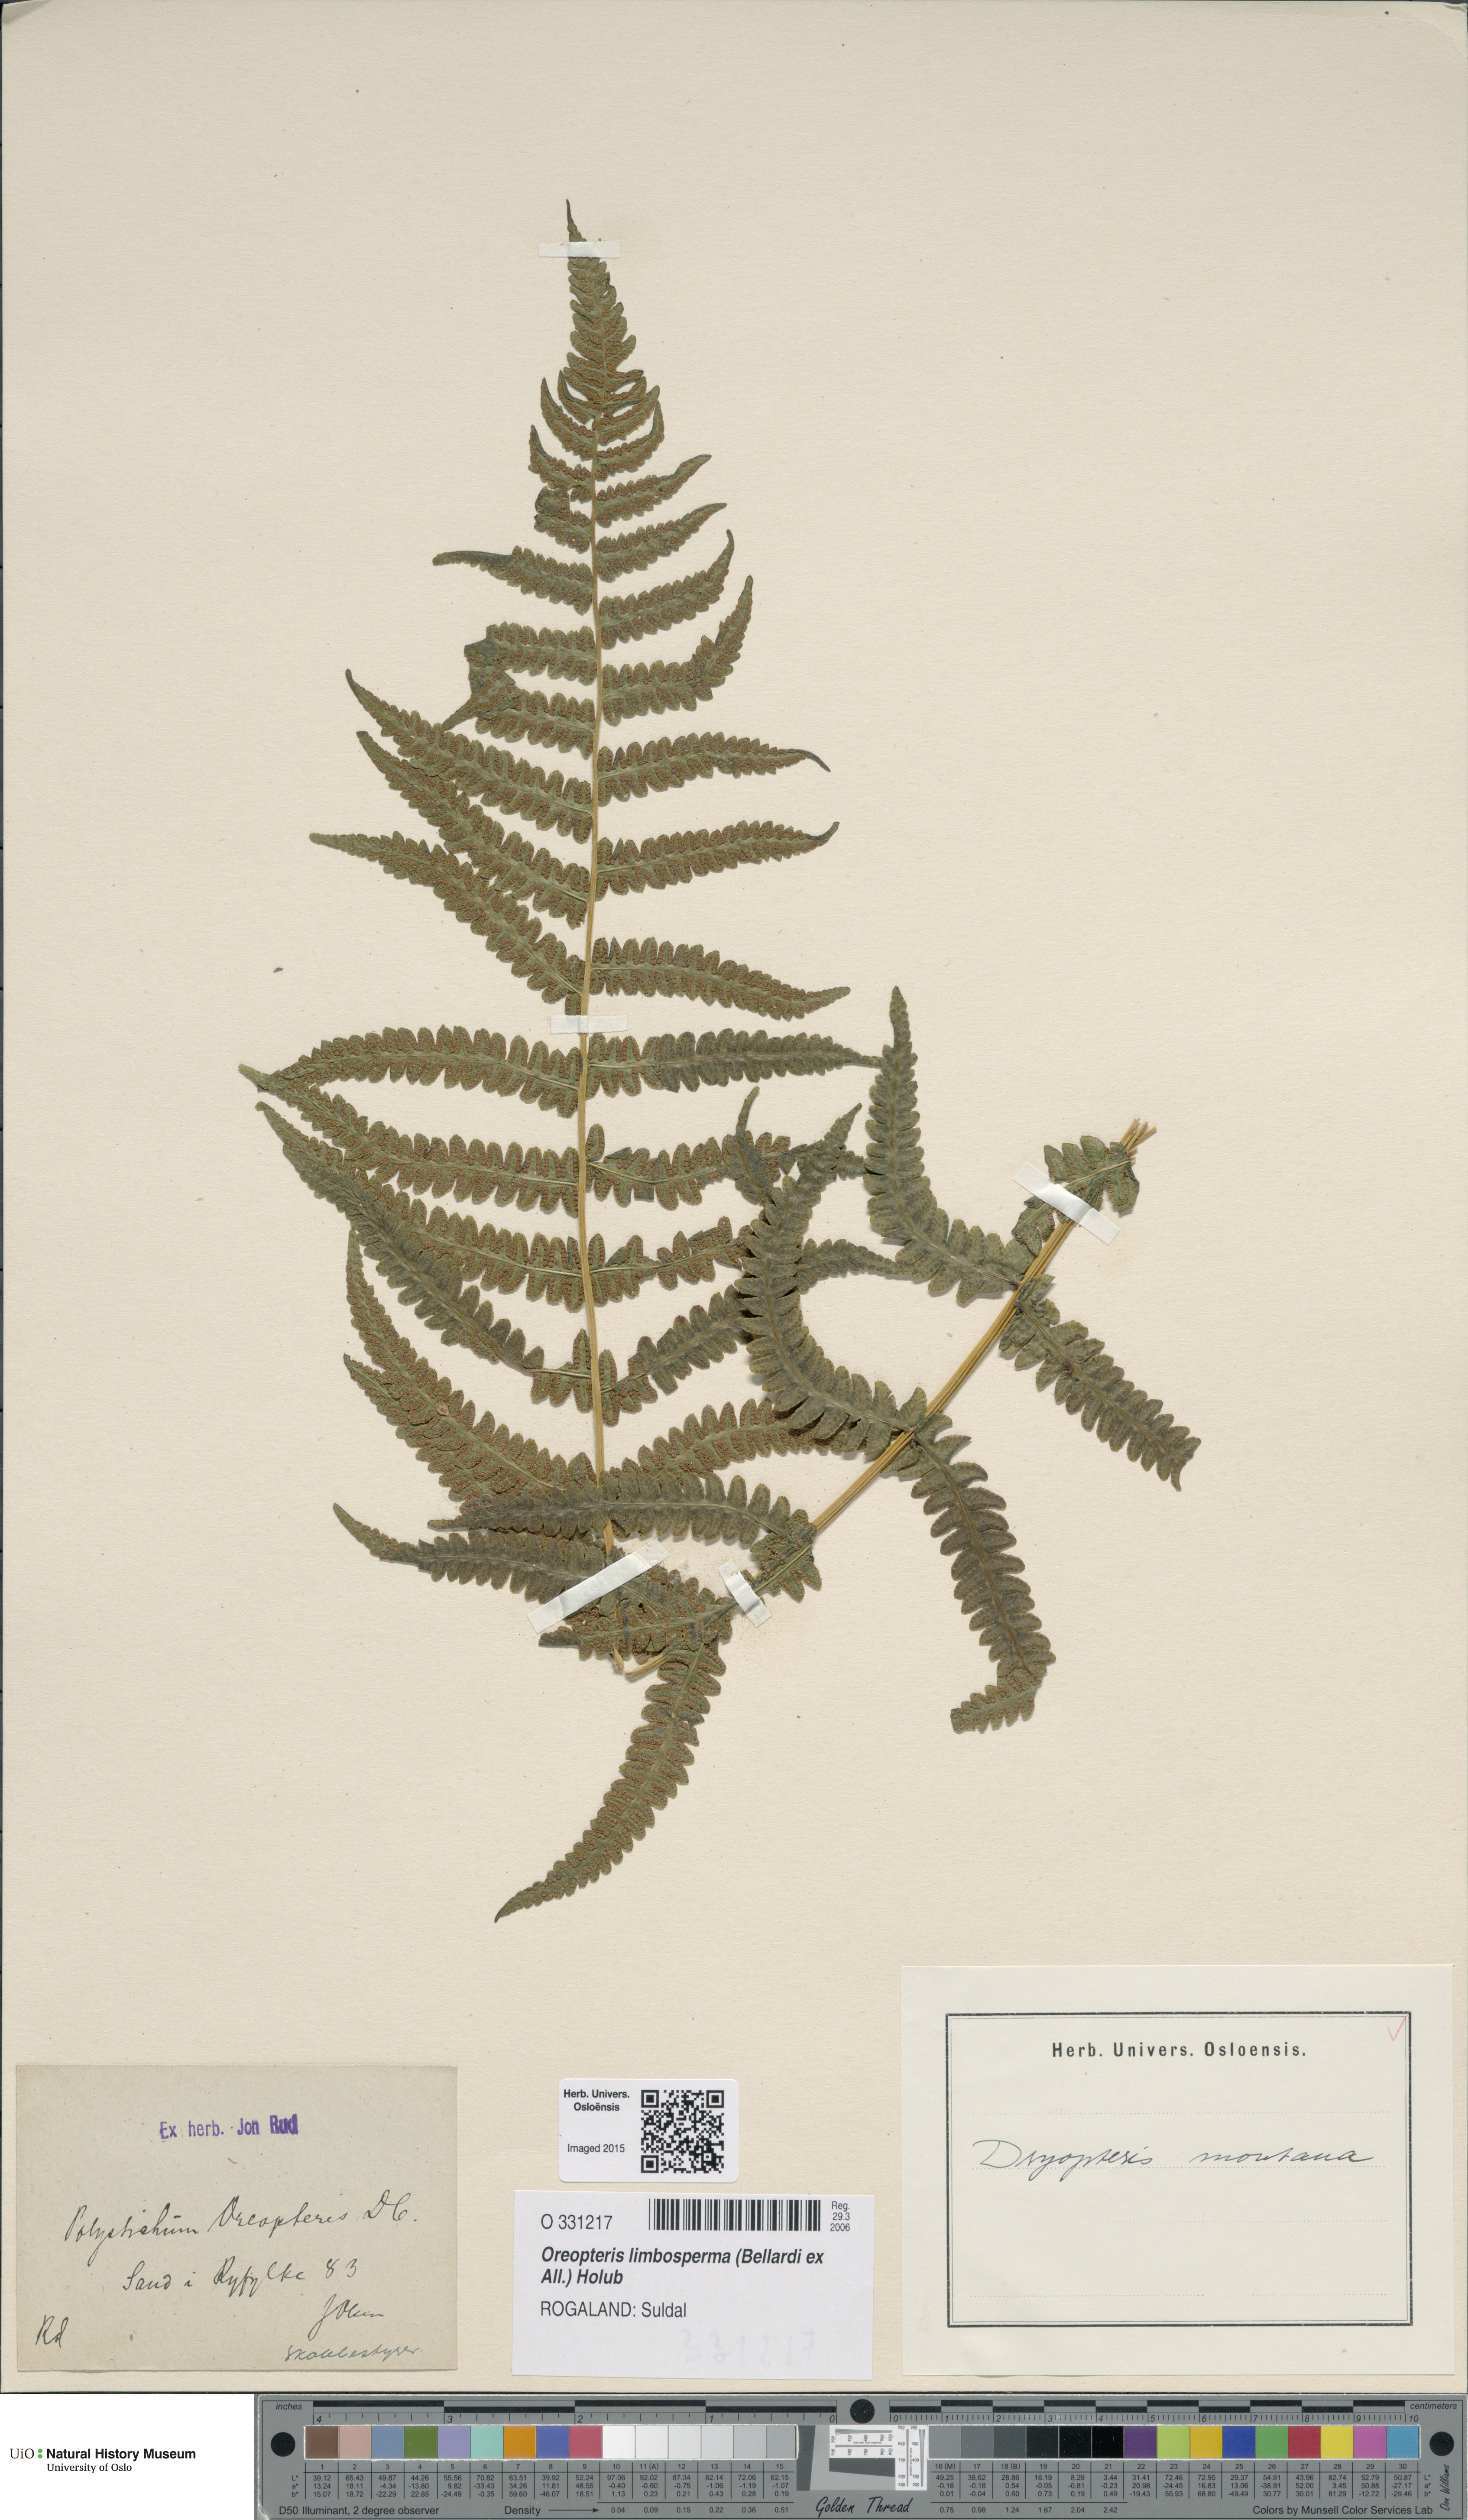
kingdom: Plantae
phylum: Tracheophyta
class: Polypodiopsida
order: Polypodiales
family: Thelypteridaceae
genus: Oreopteris
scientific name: Oreopteris limbosperma
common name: Lemon-scented fern
